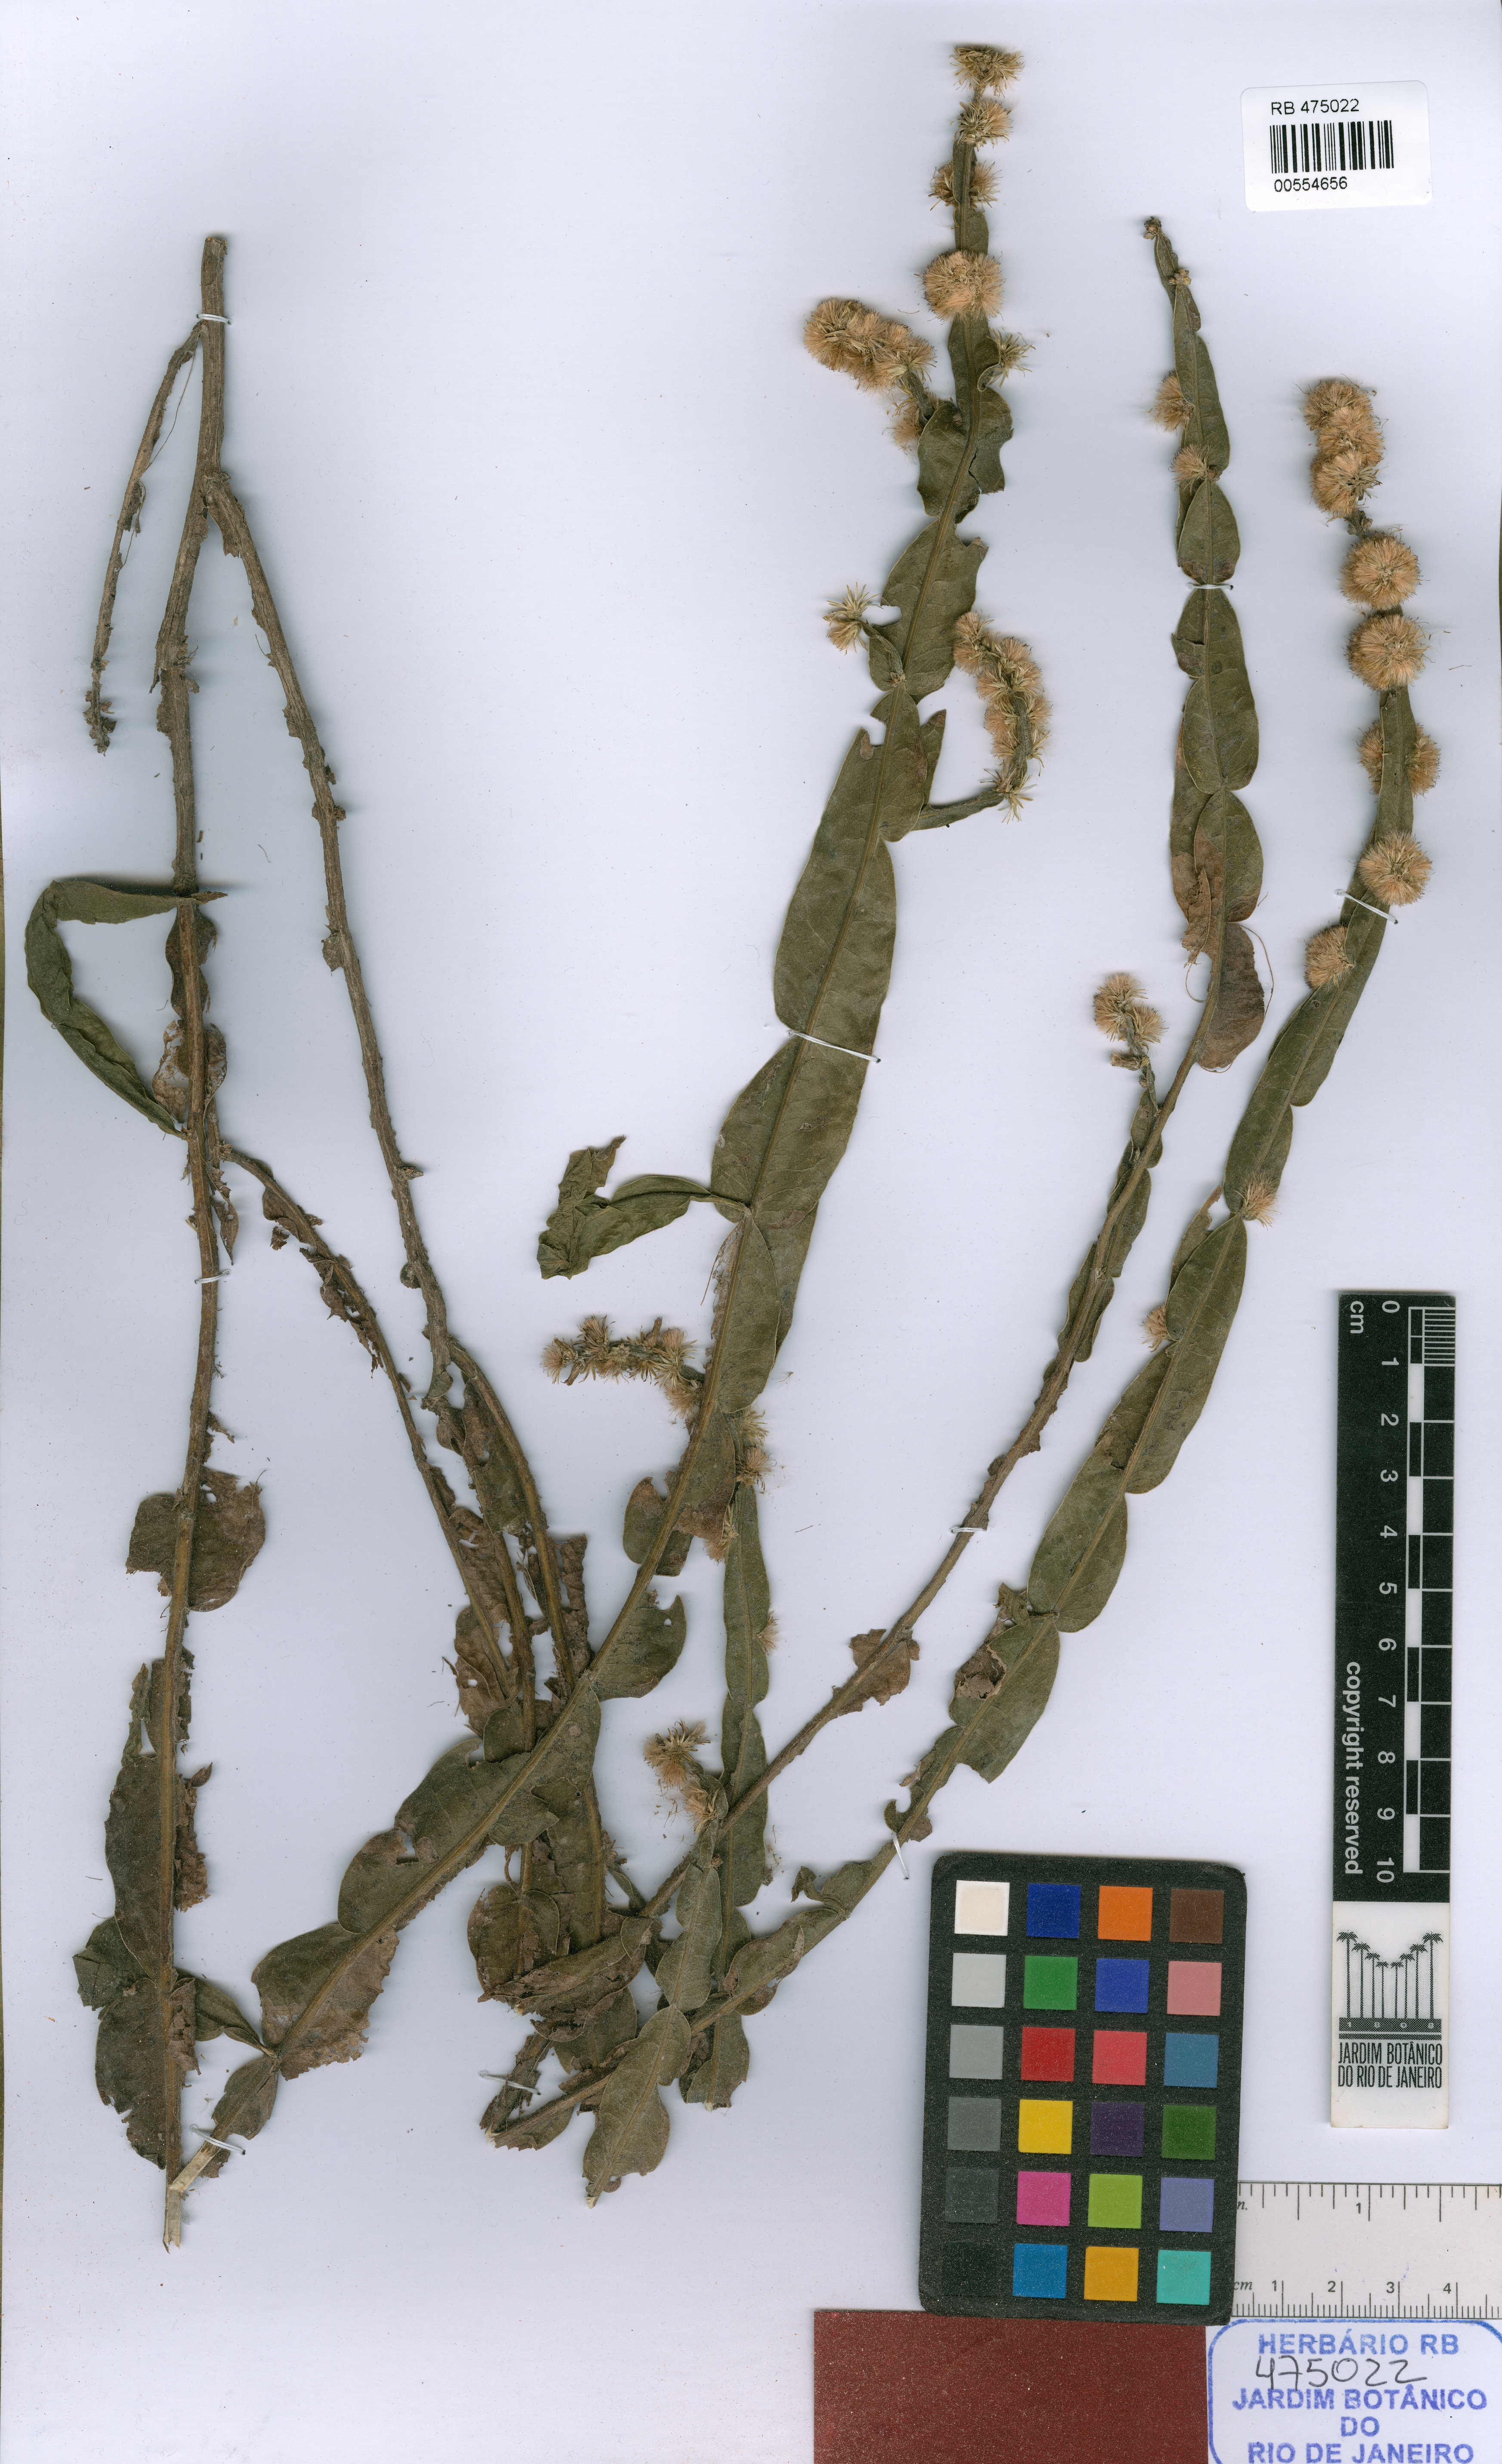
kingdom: Plantae
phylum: Tracheophyta
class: Magnoliopsida
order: Asterales
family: Asteraceae
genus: Baccharis
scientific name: Baccharis jocheniana
